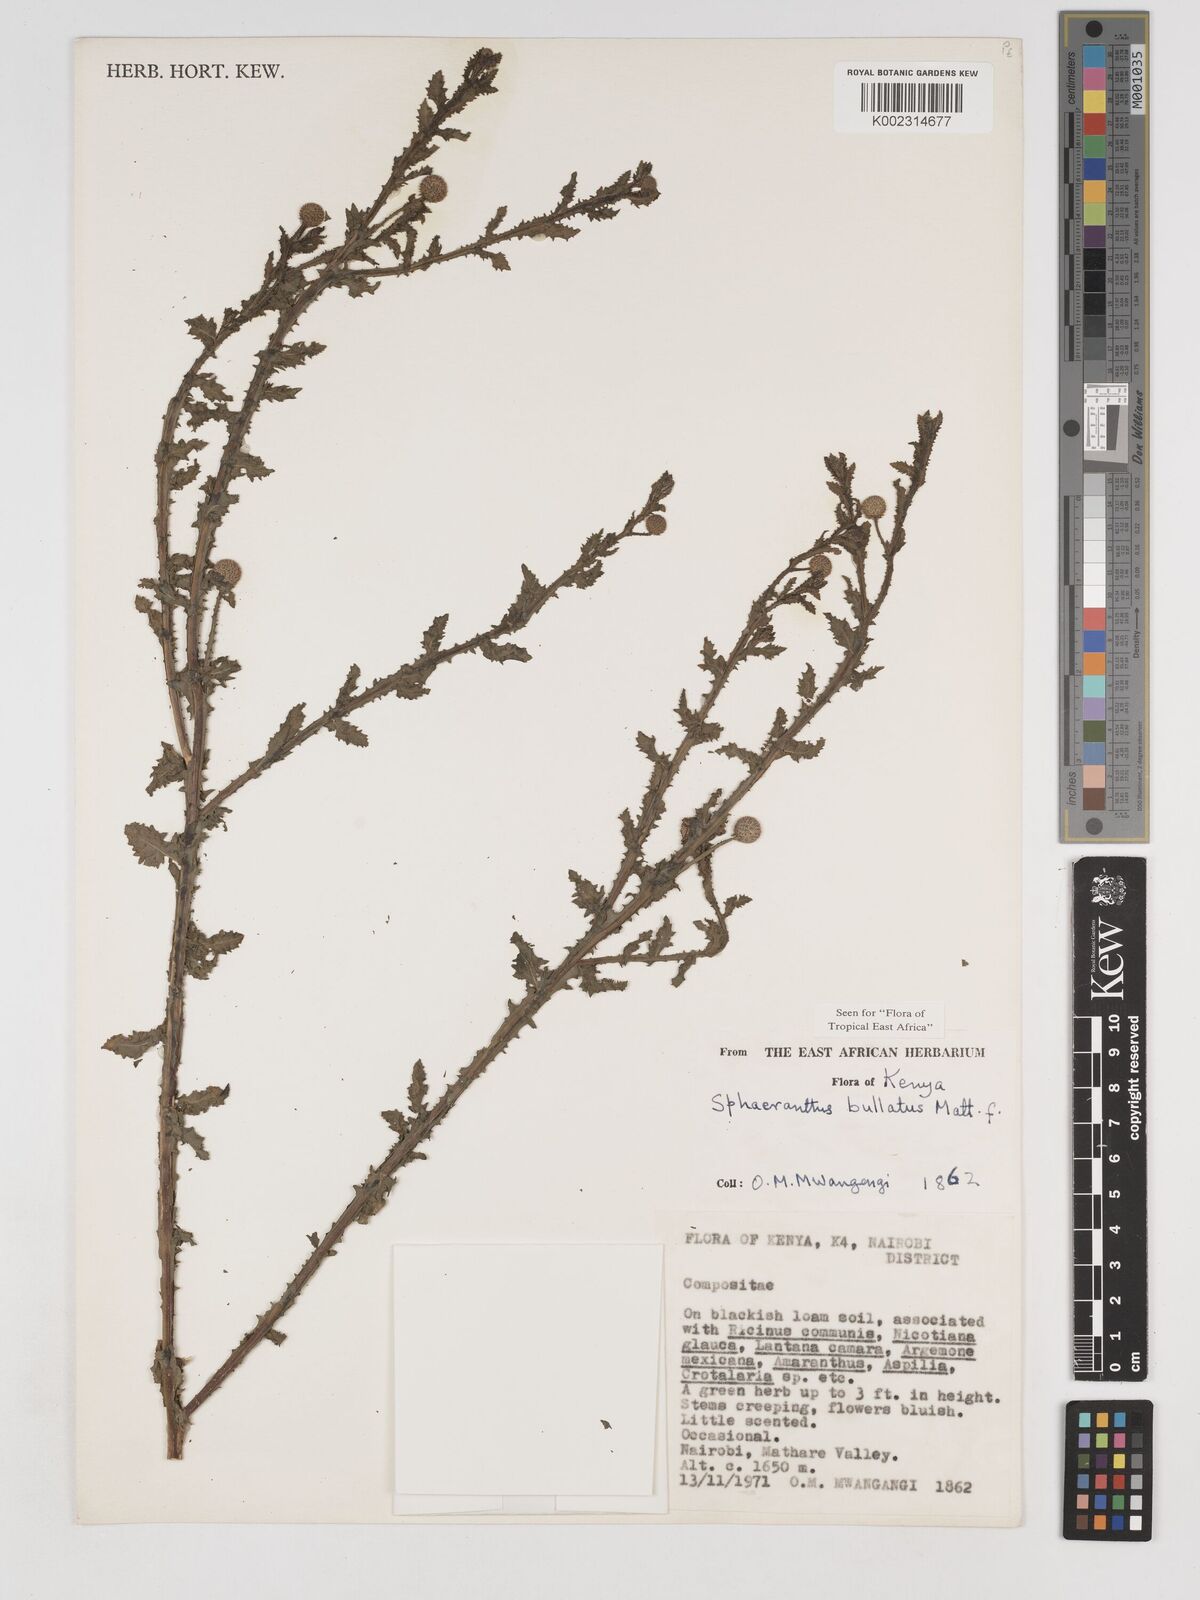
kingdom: Plantae
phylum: Tracheophyta
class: Magnoliopsida
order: Asterales
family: Asteraceae
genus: Sphaeranthus
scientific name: Sphaeranthus bullatus
